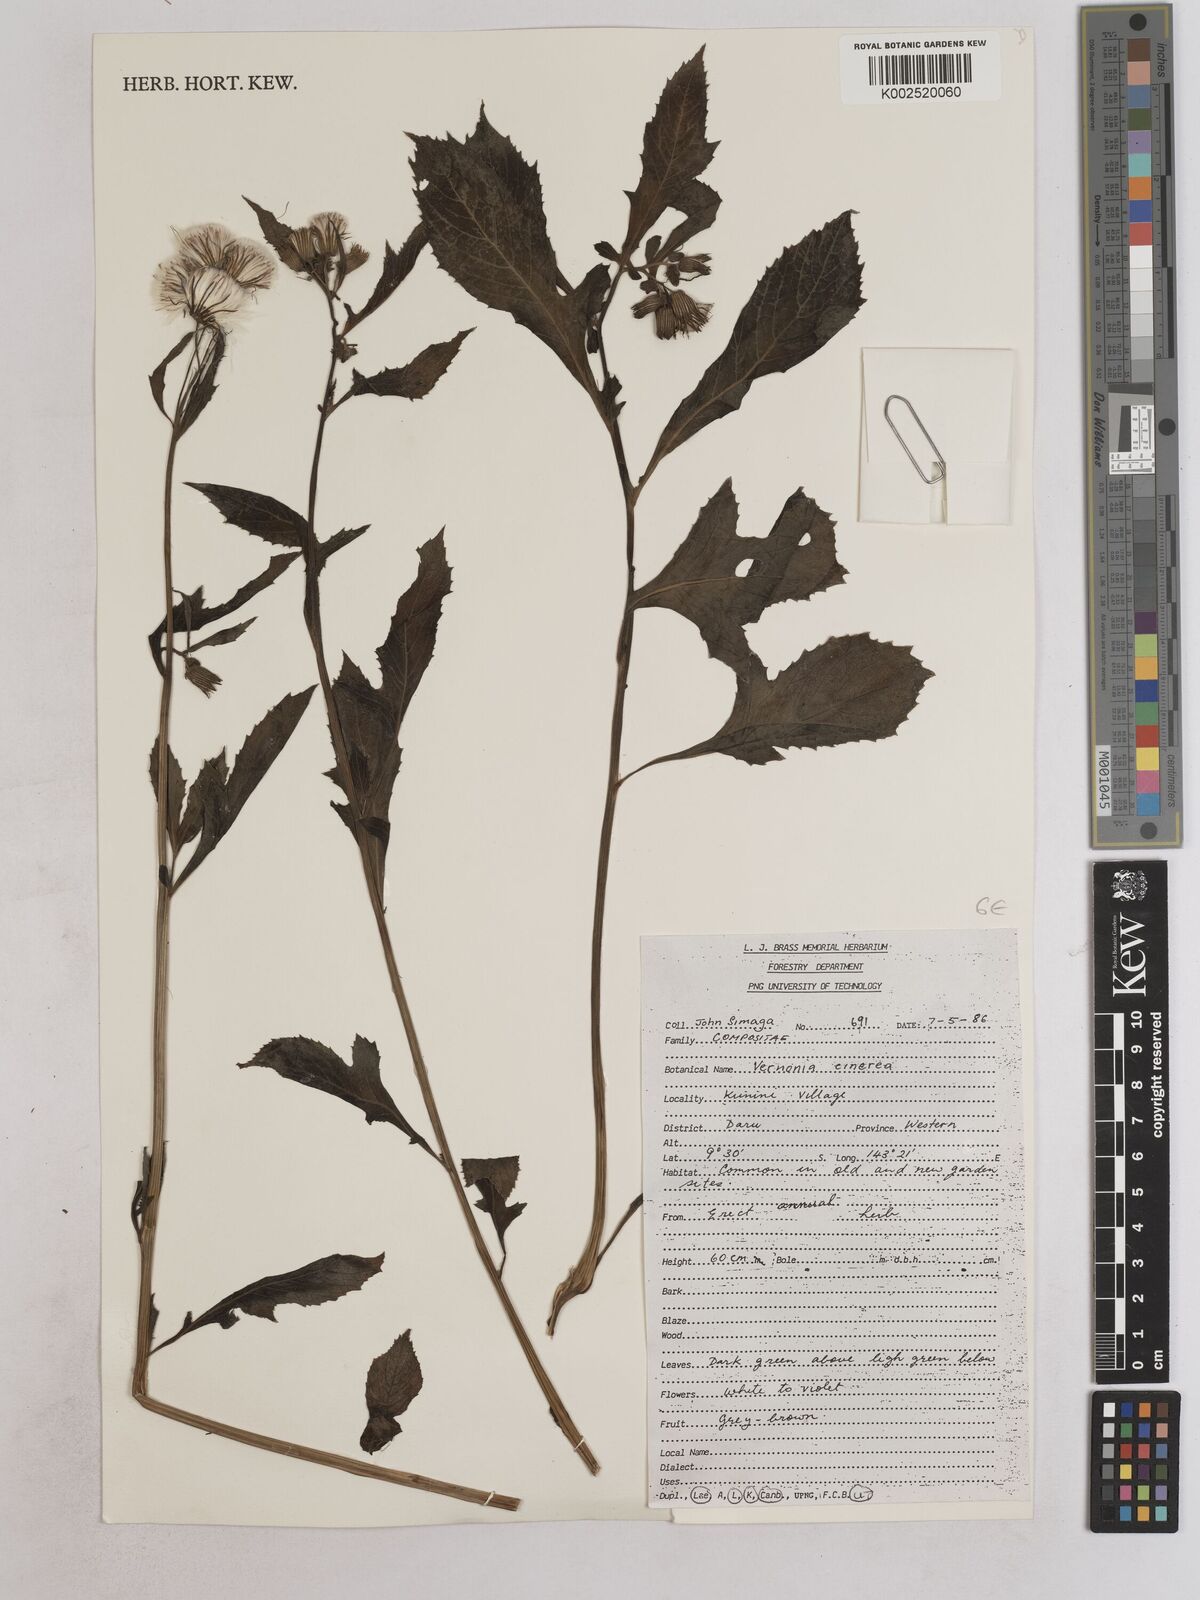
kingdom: Plantae
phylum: Tracheophyta
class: Magnoliopsida
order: Asterales
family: Asteraceae
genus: Cyanthillium
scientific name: Cyanthillium cinereum
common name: Little ironweed
